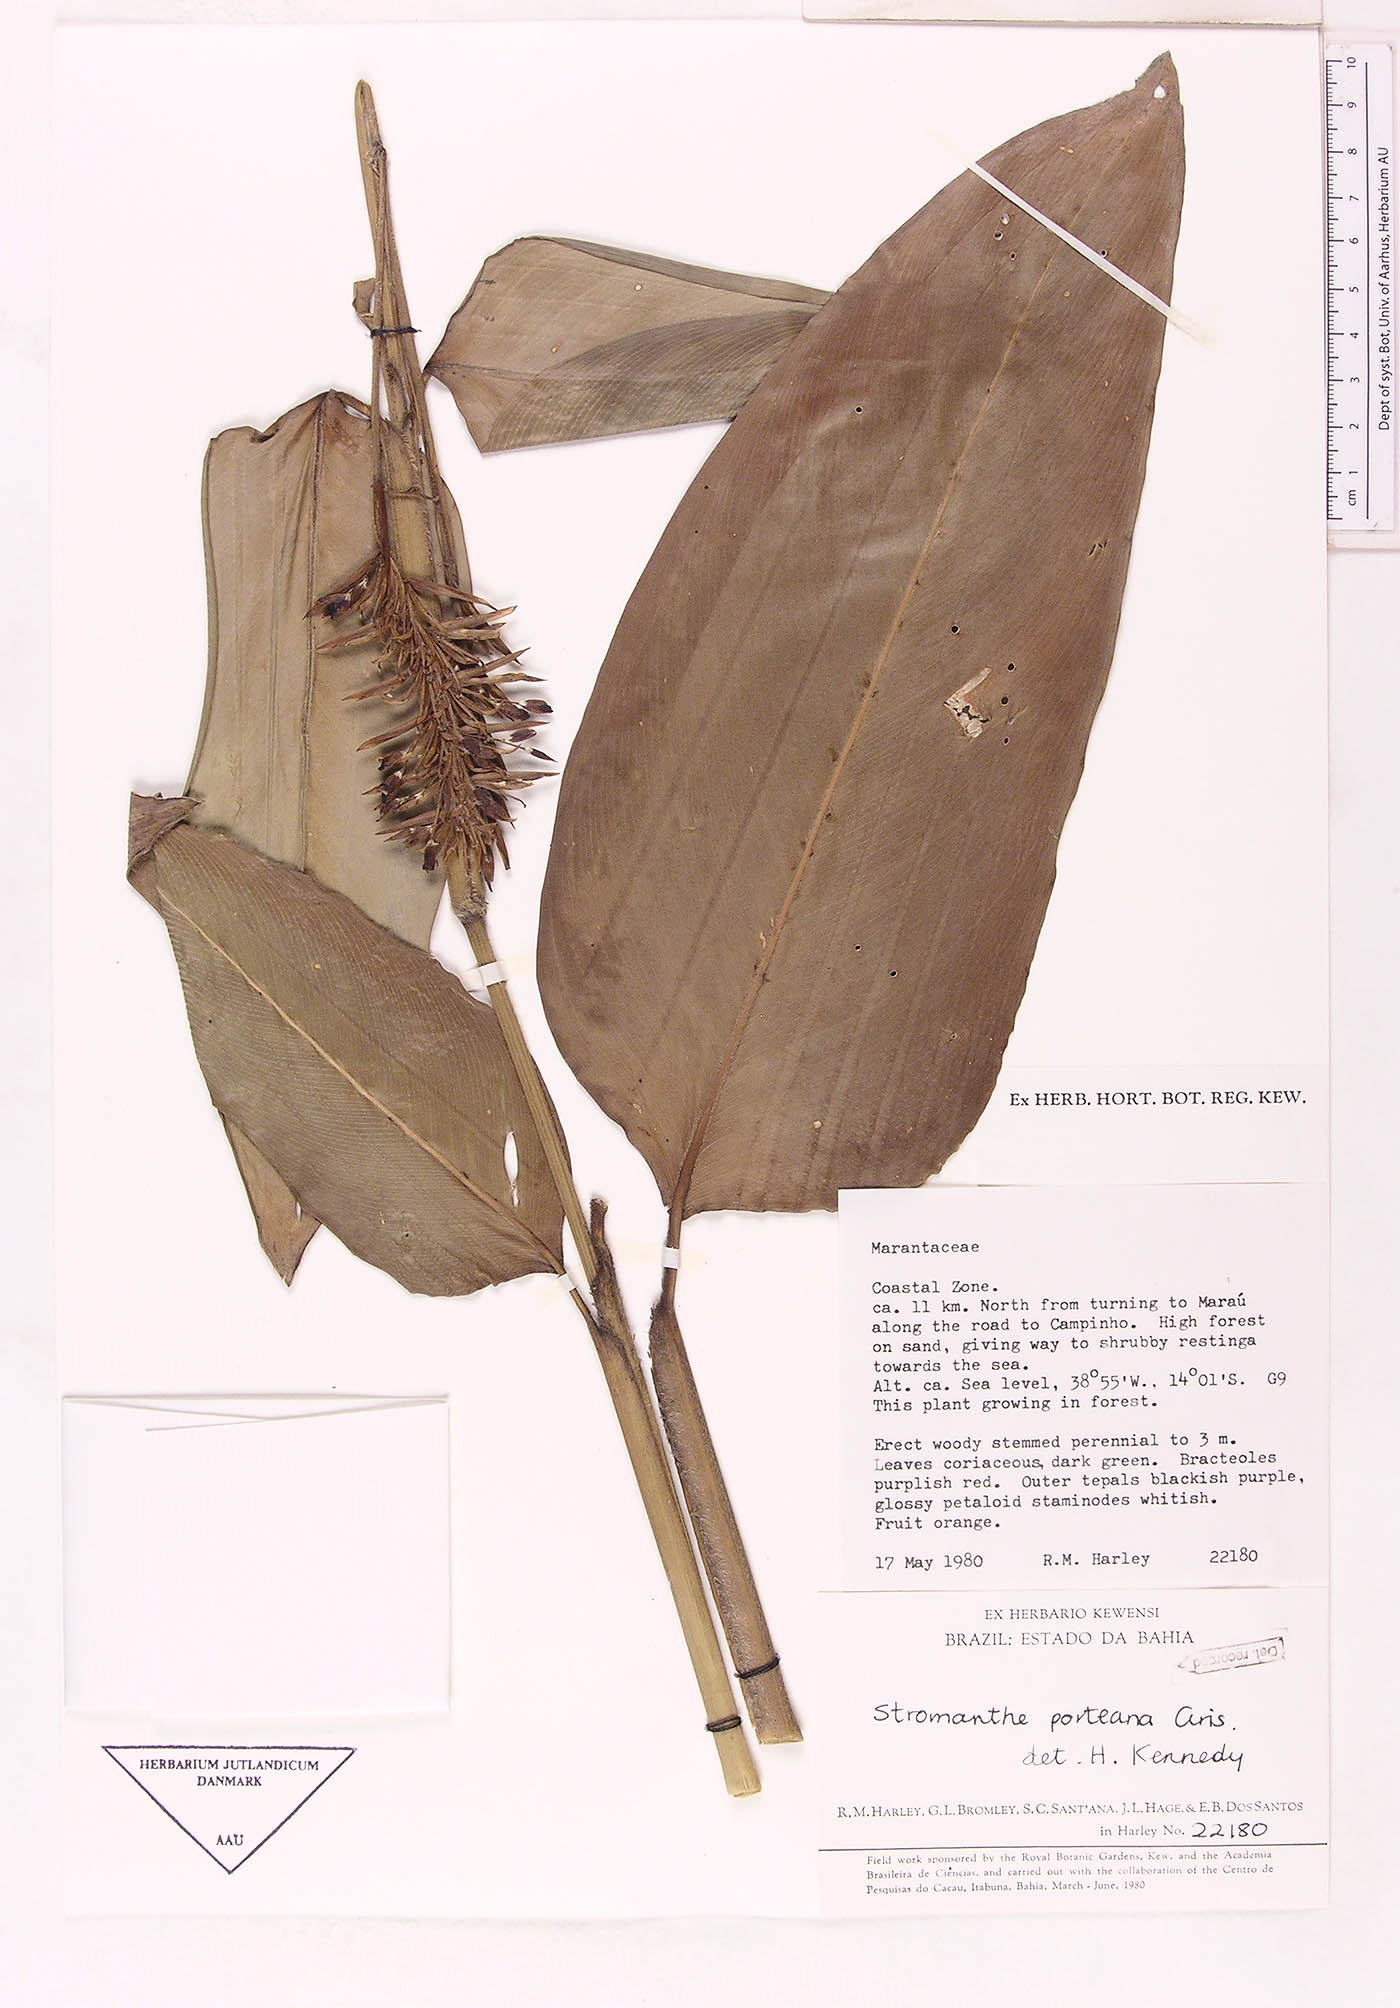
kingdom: Plantae
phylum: Tracheophyta
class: Liliopsida
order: Zingiberales
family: Marantaceae
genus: Stromanthe
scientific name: Stromanthe porteana
